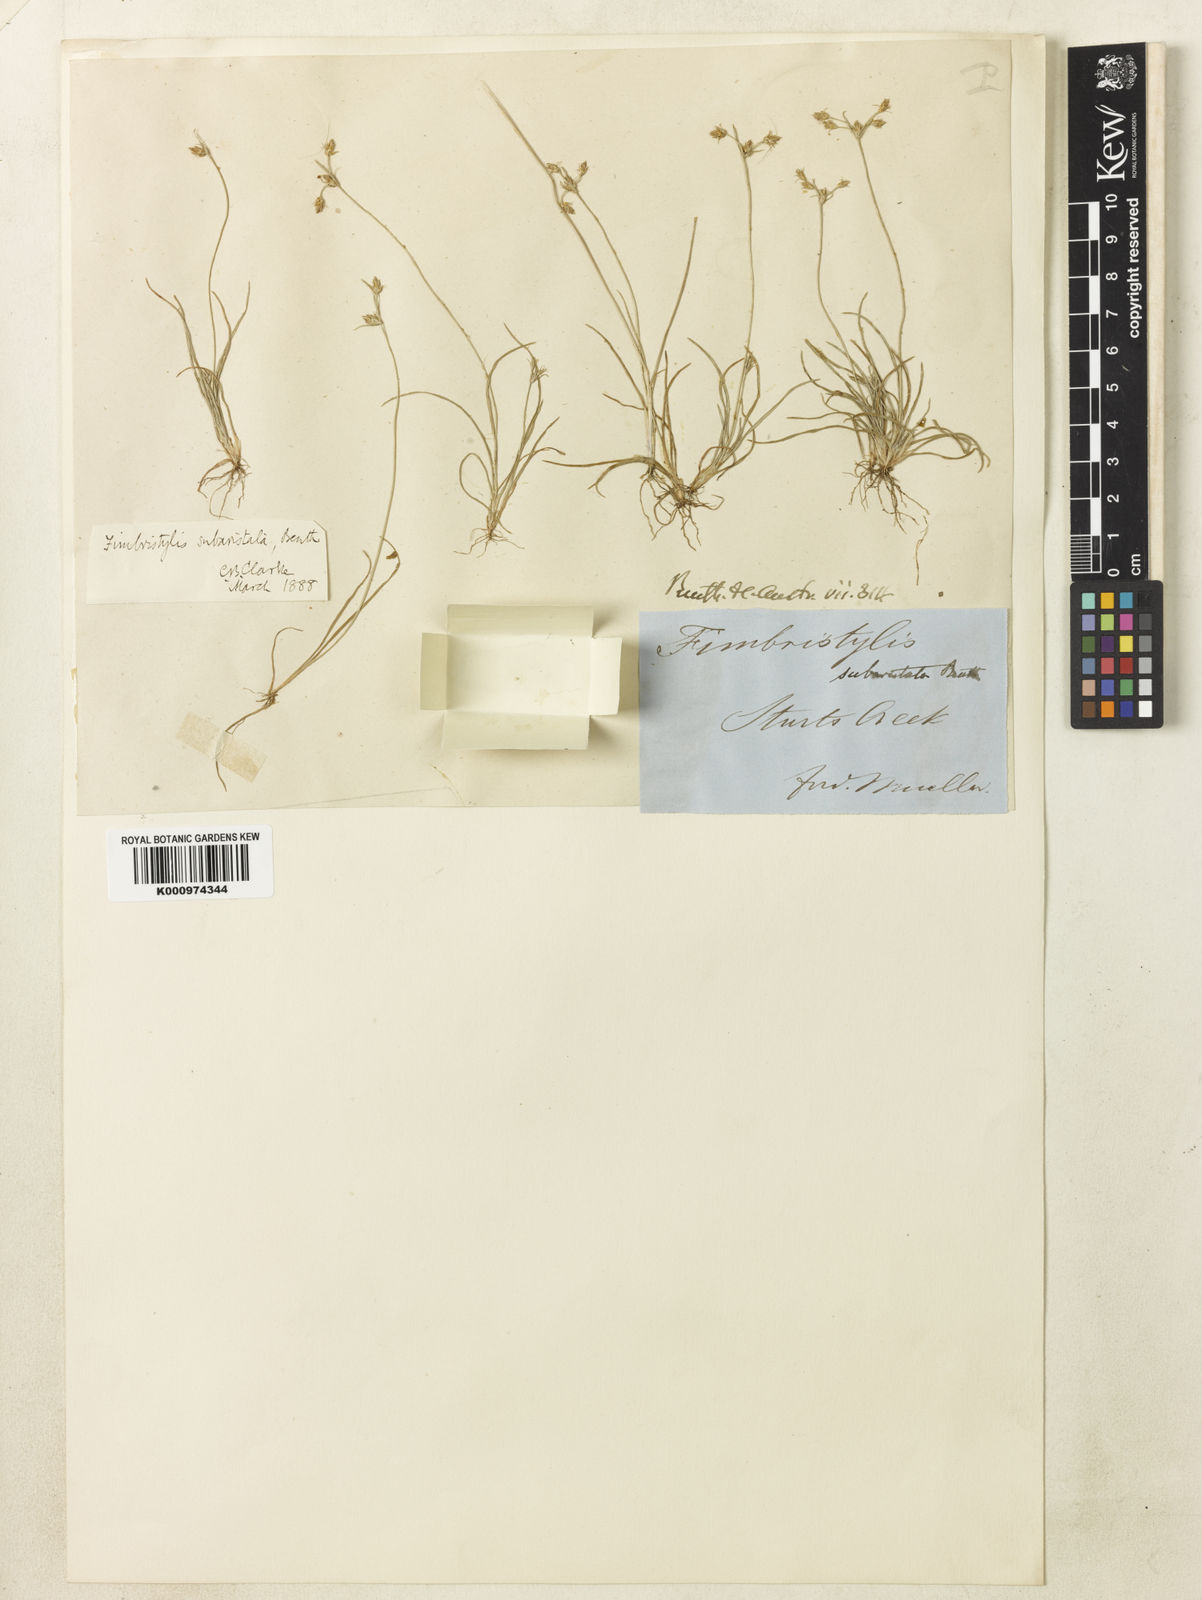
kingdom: Plantae
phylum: Tracheophyta
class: Liliopsida
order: Poales
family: Cyperaceae
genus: Fimbristylis
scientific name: Fimbristylis subaristata
